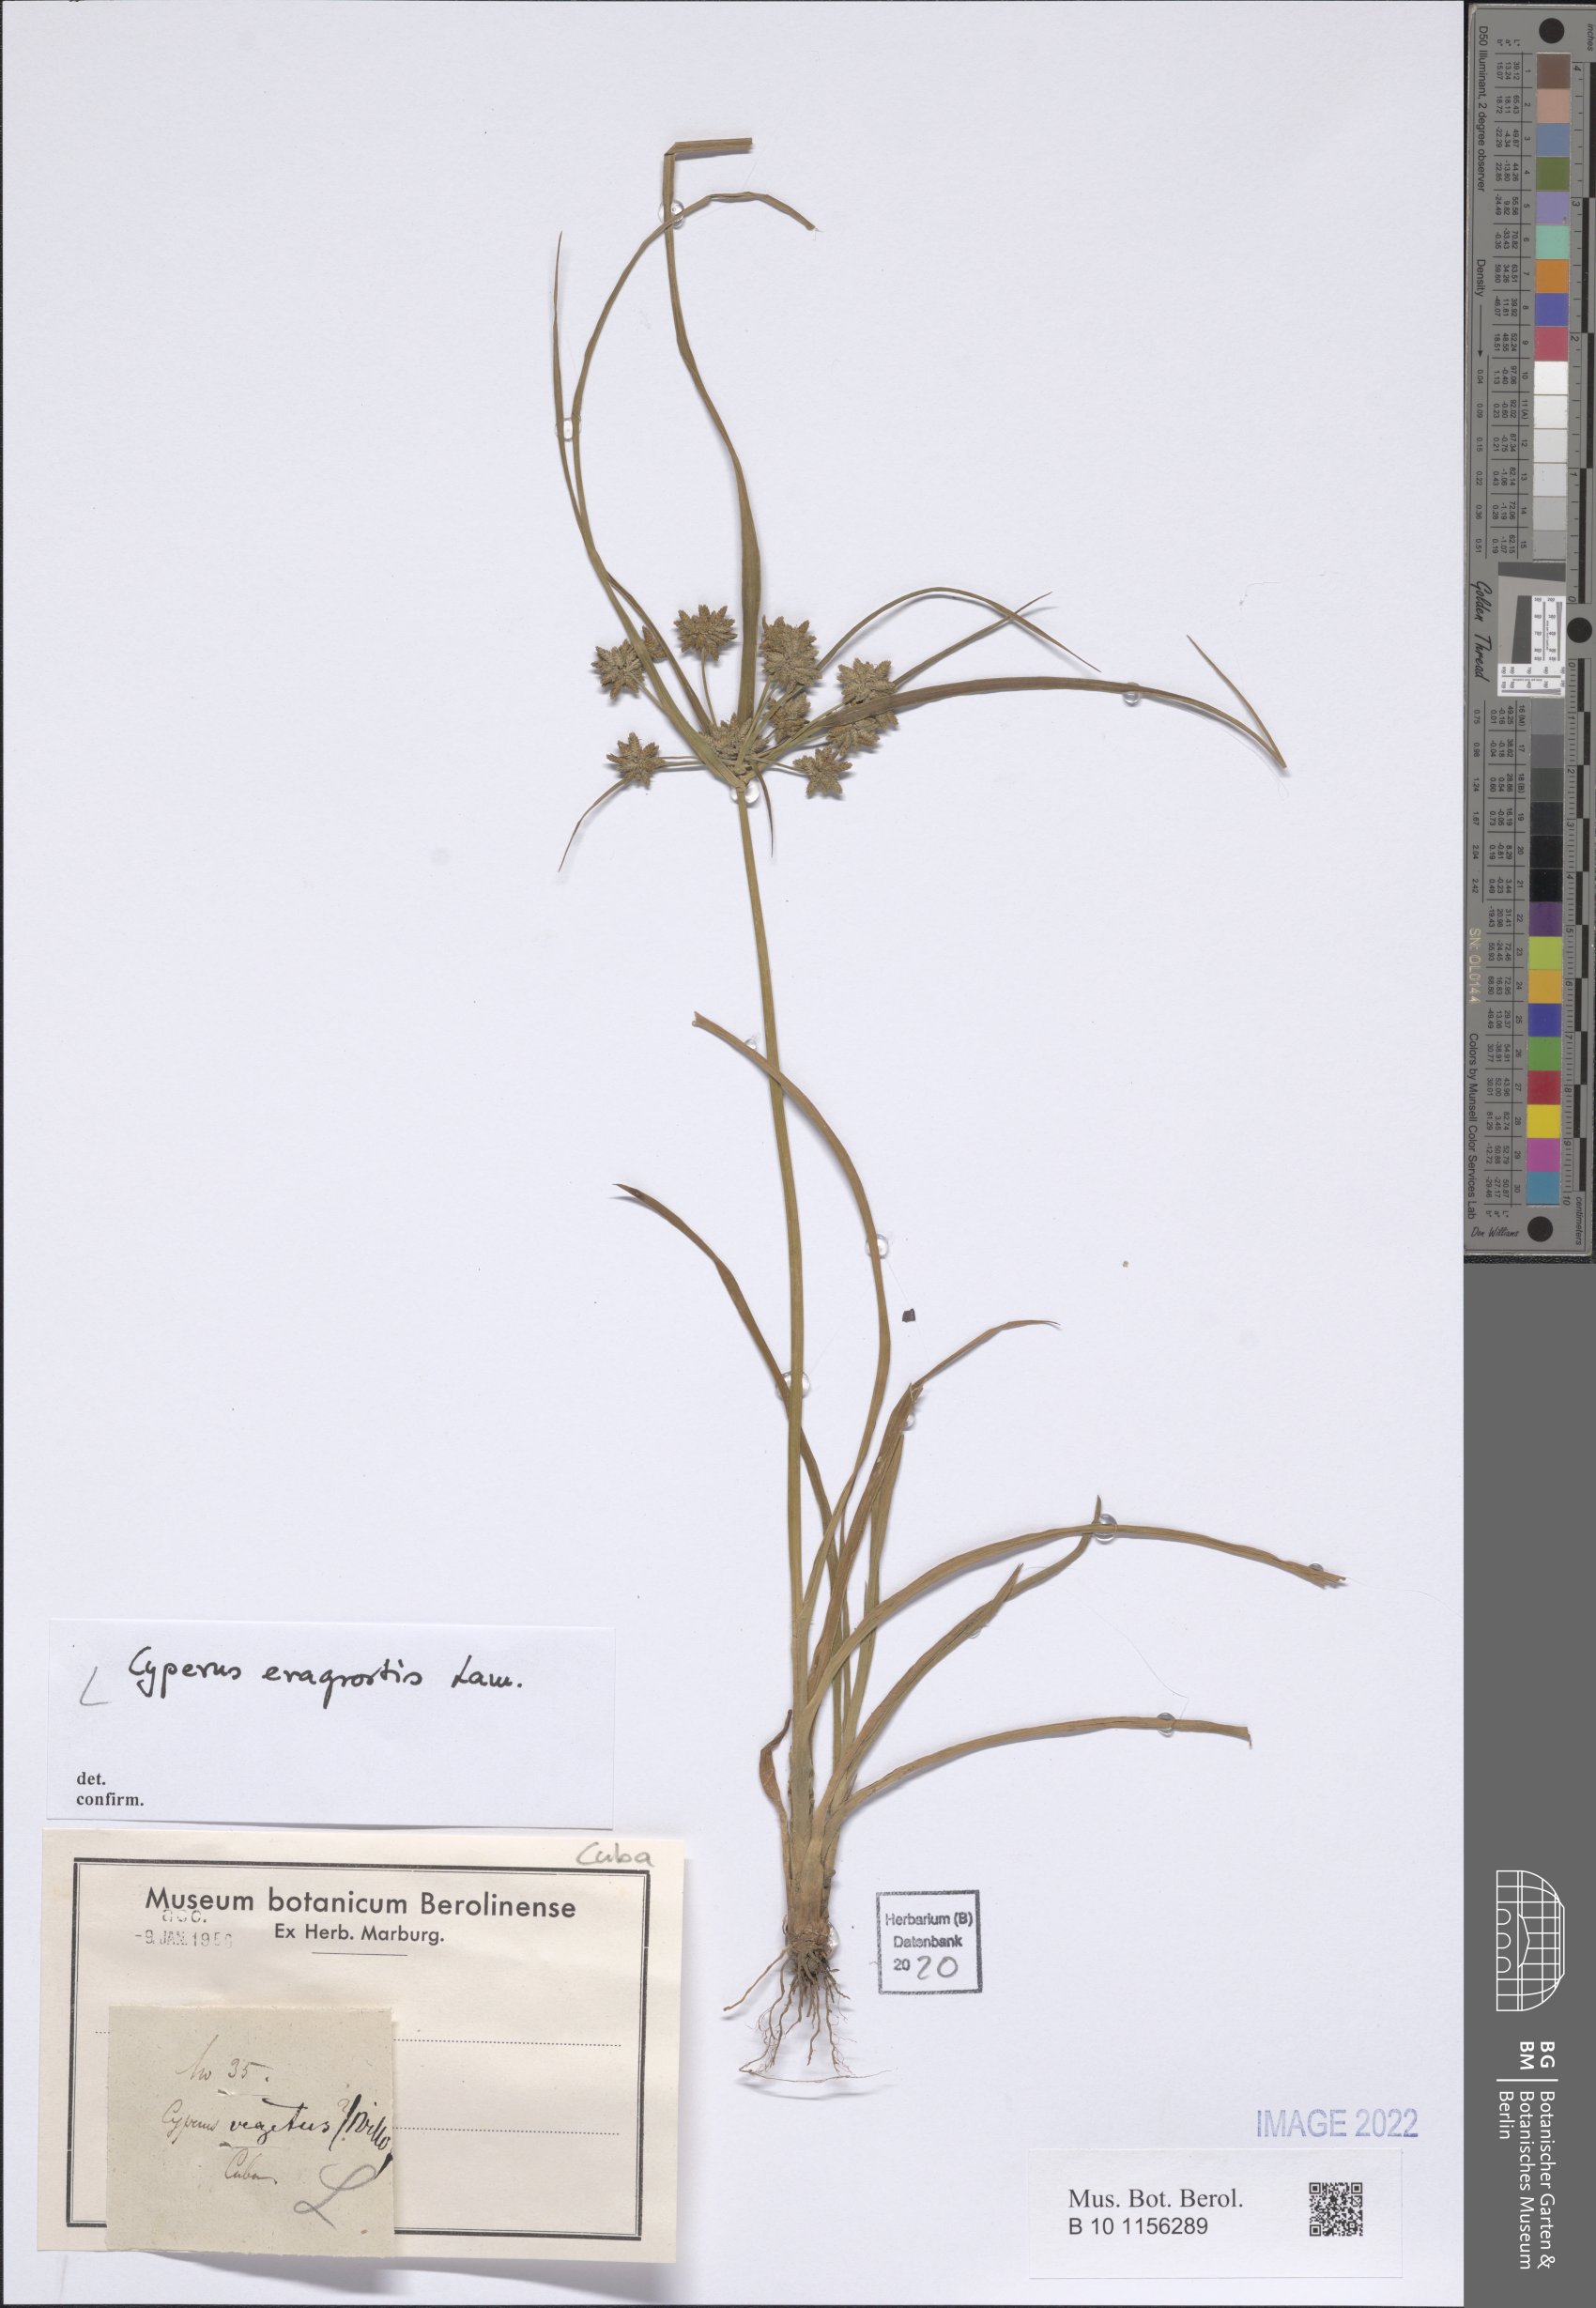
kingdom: Plantae
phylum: Tracheophyta
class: Liliopsida
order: Poales
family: Cyperaceae
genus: Cyperus
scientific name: Cyperus eragrostis
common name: Tall flatsedge
